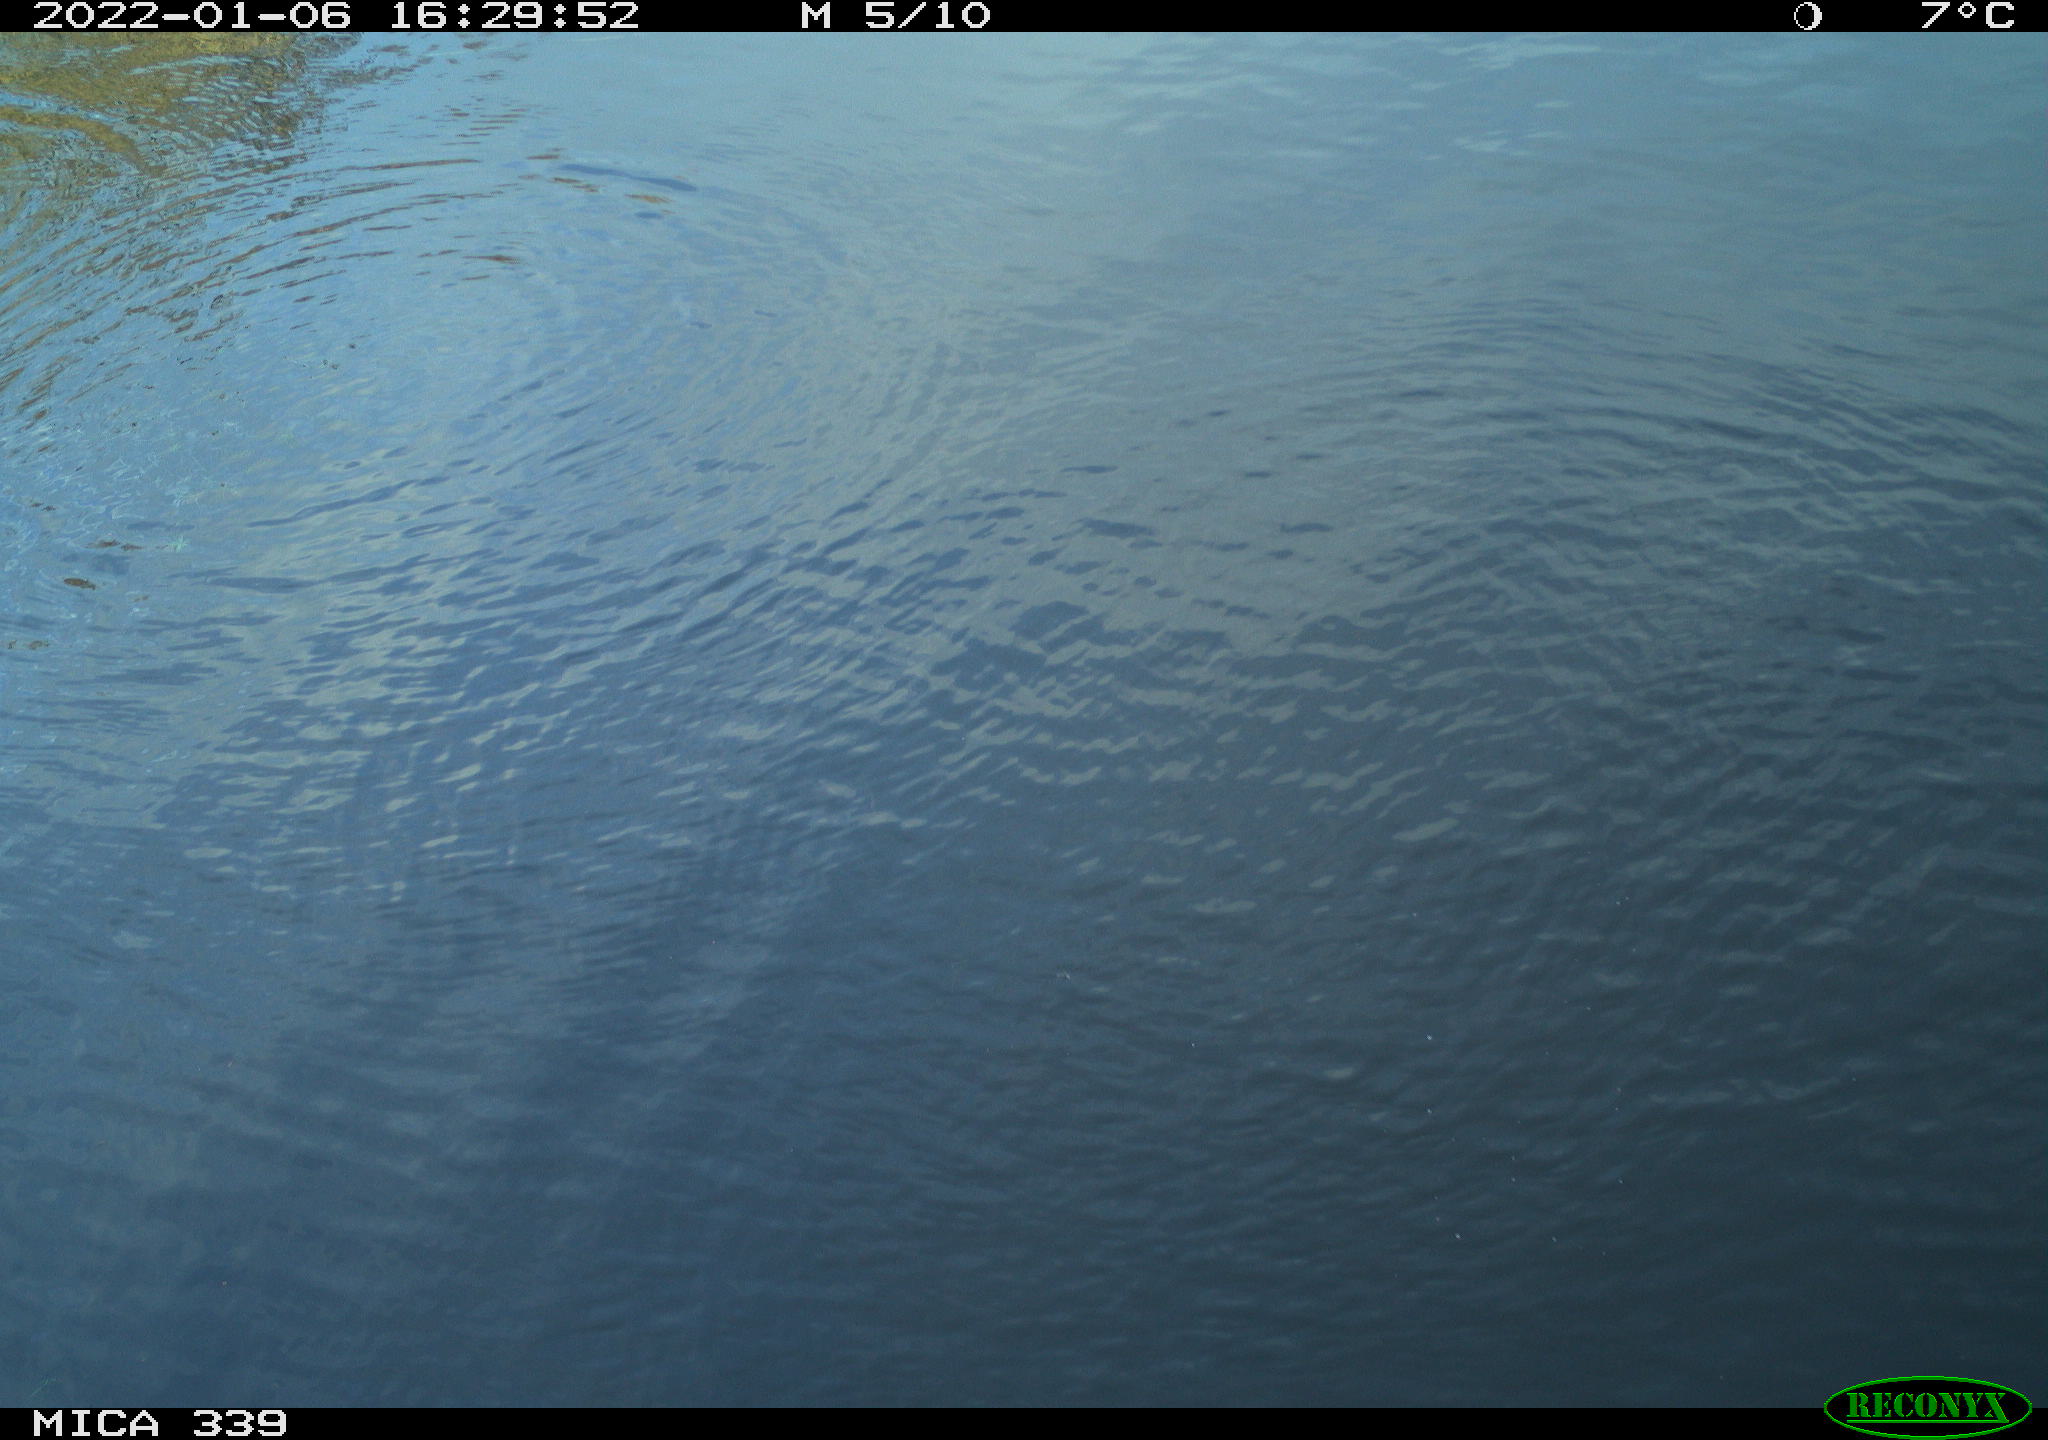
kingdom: Animalia
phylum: Chordata
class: Aves
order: Pelecaniformes
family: Ardeidae
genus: Ardea
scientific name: Ardea alba
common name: Great egret
